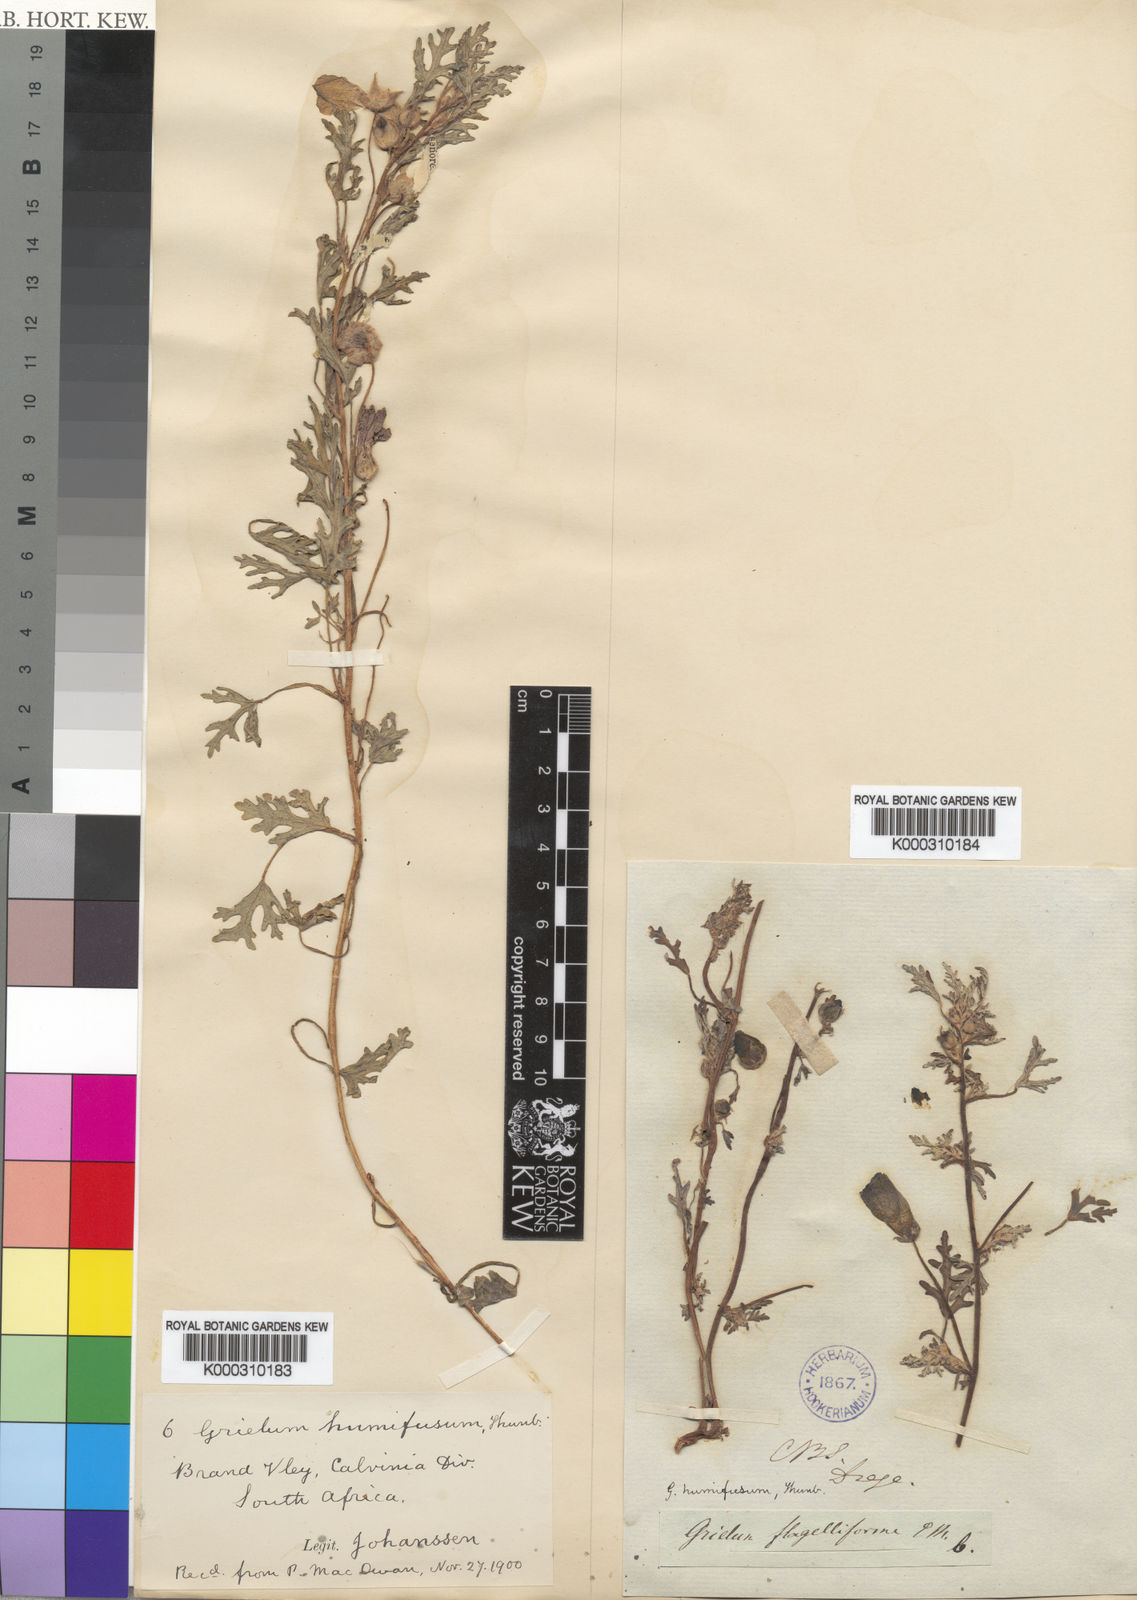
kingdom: Plantae
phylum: Tracheophyta
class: Magnoliopsida
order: Malvales
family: Neuradaceae
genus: Grielum
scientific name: Grielum humifusum
